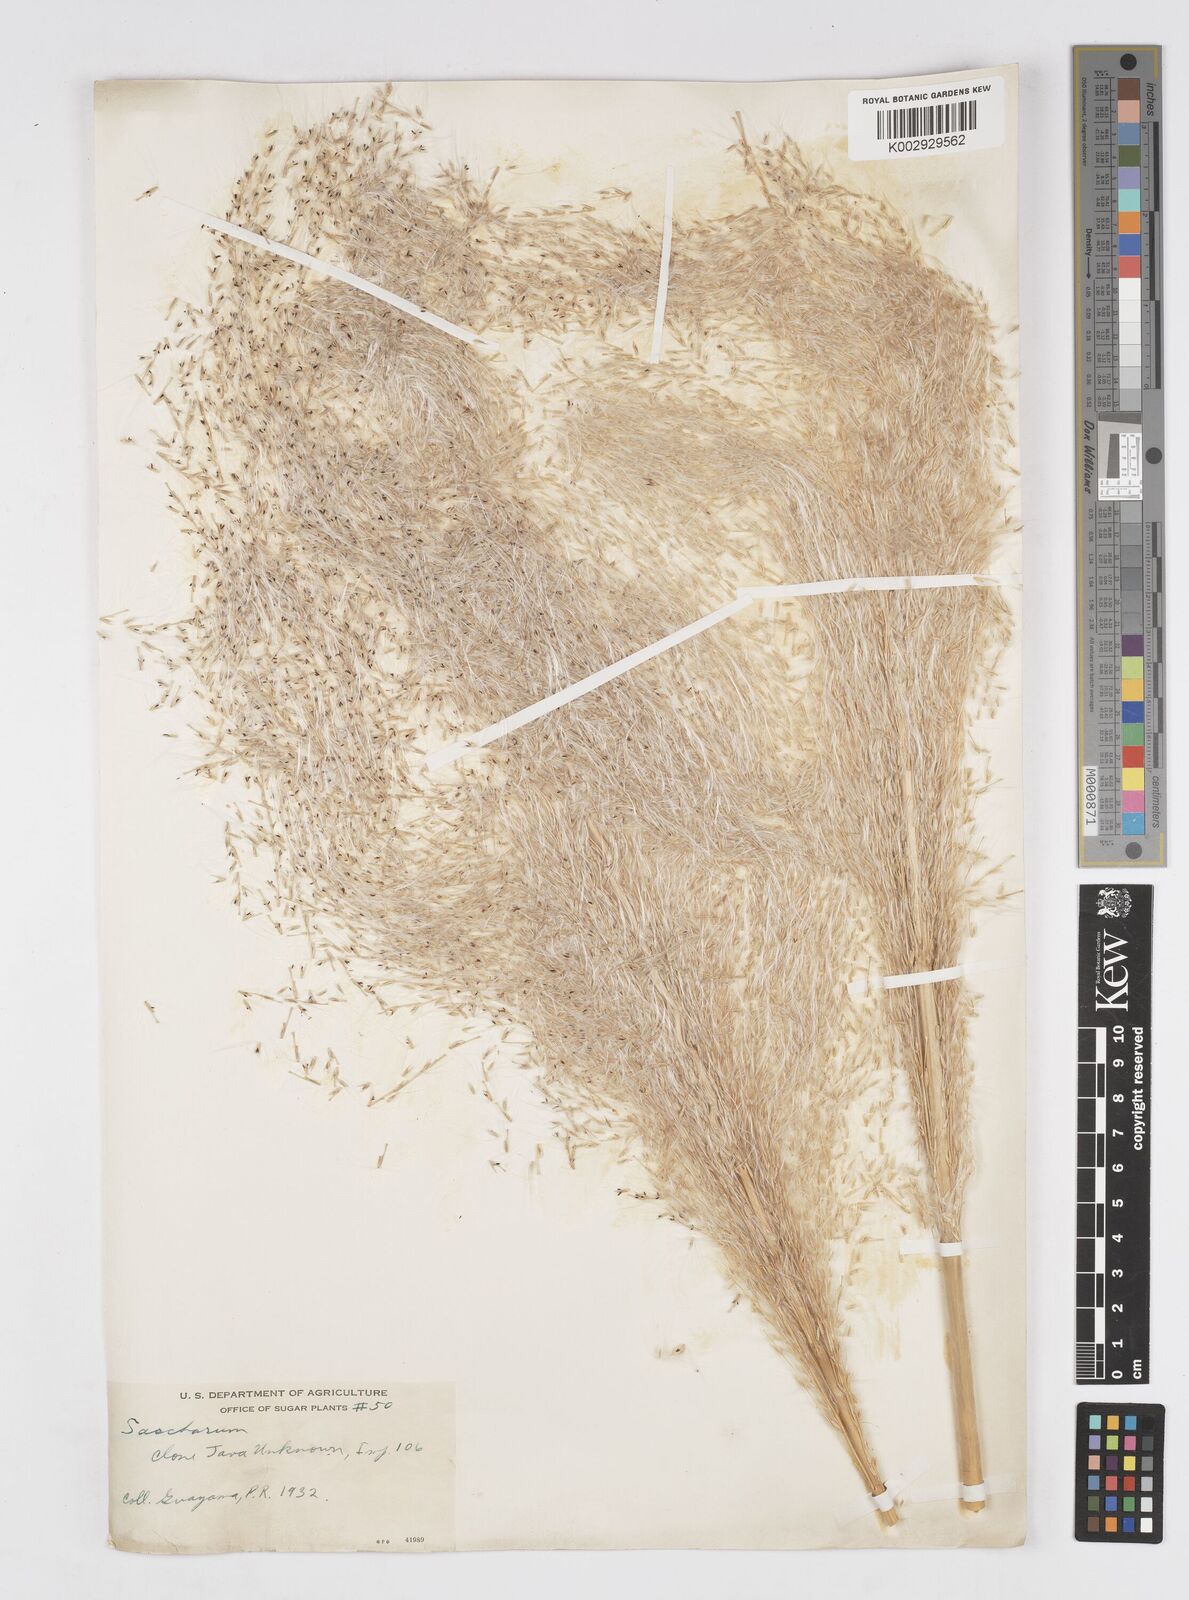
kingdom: Plantae
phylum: Tracheophyta
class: Liliopsida
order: Poales
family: Poaceae
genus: Saccharum
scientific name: Saccharum officinarum
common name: Sugarcane
